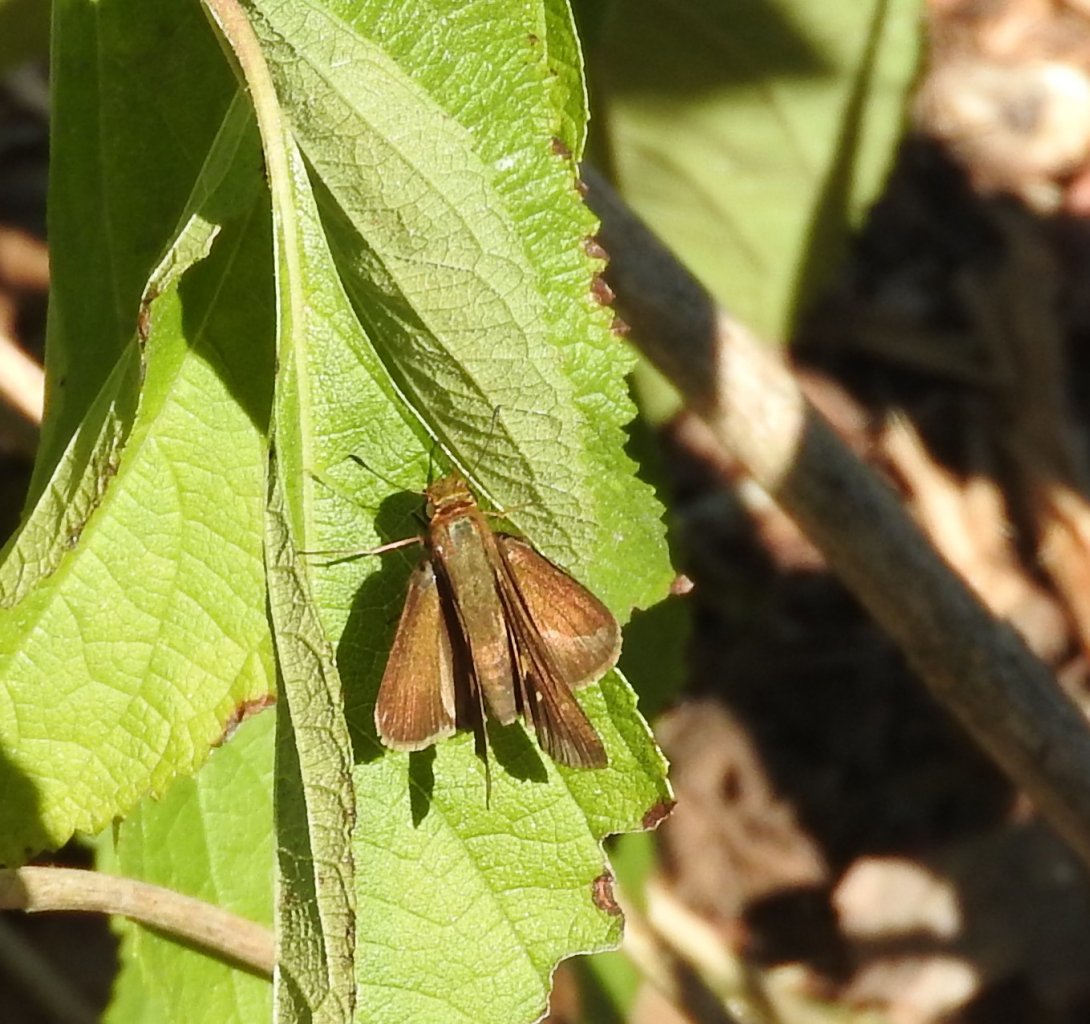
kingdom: Animalia
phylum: Arthropoda
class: Insecta
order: Lepidoptera
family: Hesperiidae
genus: Panoquina
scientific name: Panoquina ocola
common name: Ocola Skipper
